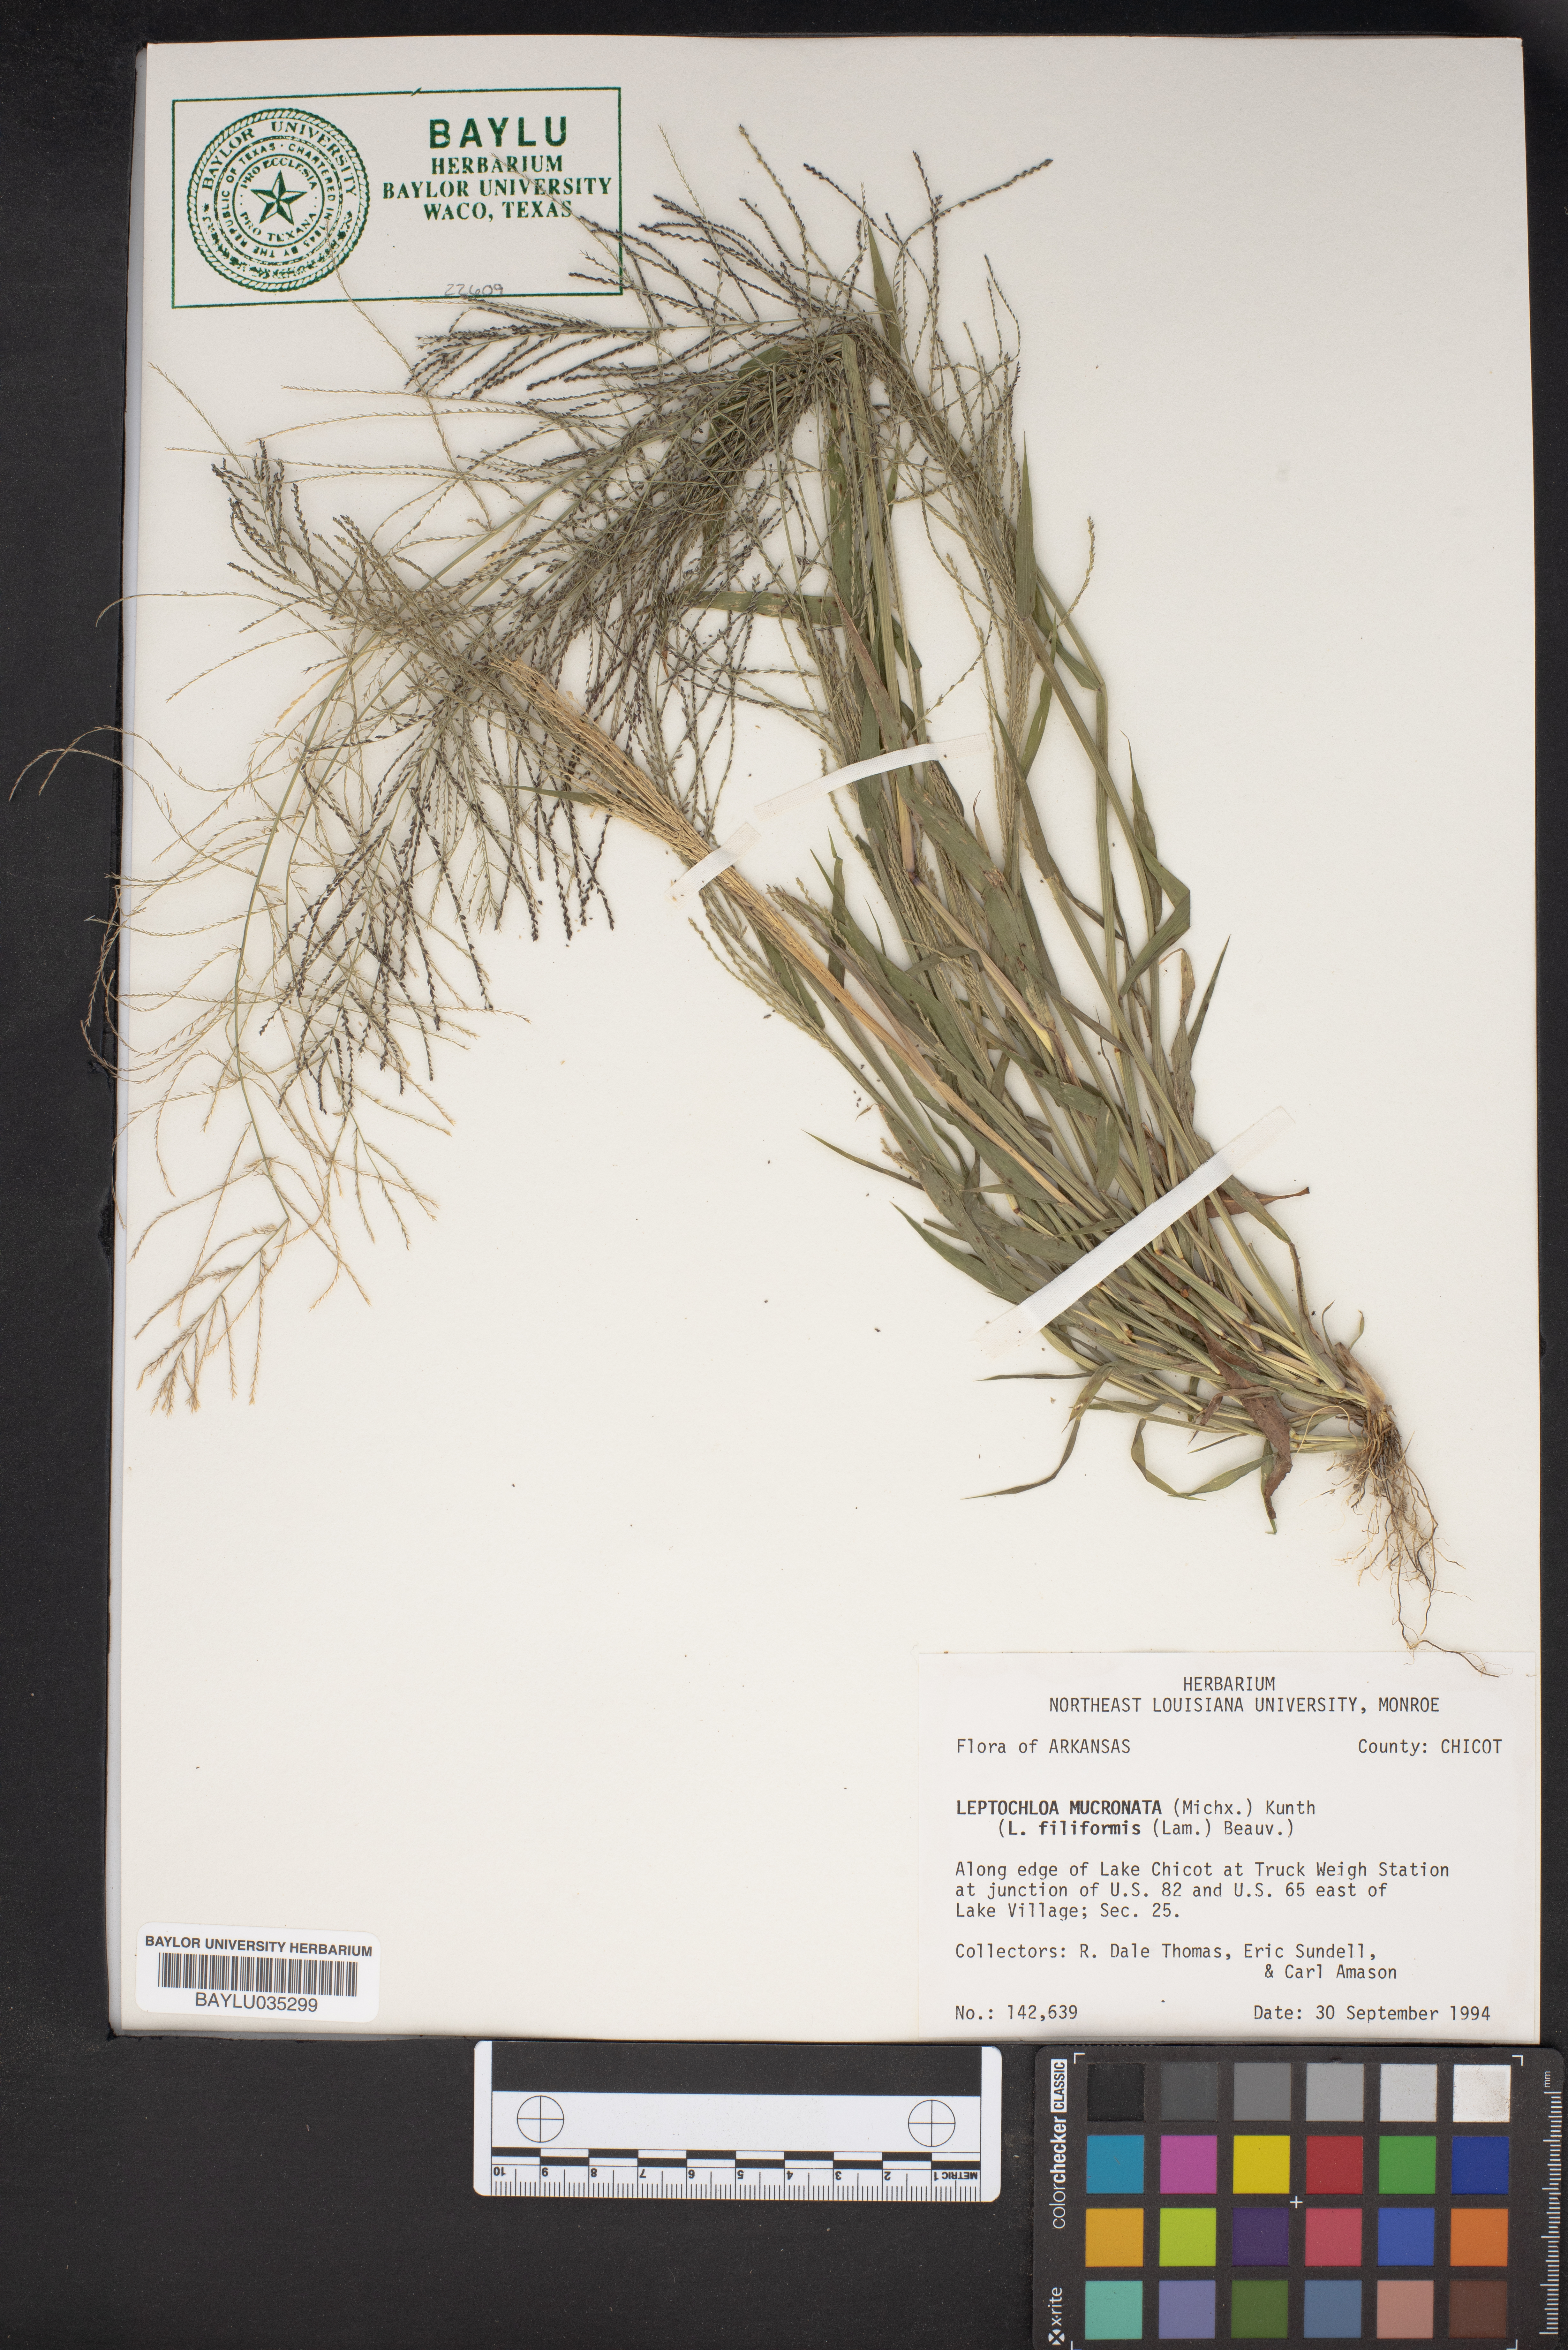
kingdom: Plantae
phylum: Tracheophyta
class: Liliopsida
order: Poales
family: Poaceae
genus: Leptochloa
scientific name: Leptochloa mucronata
